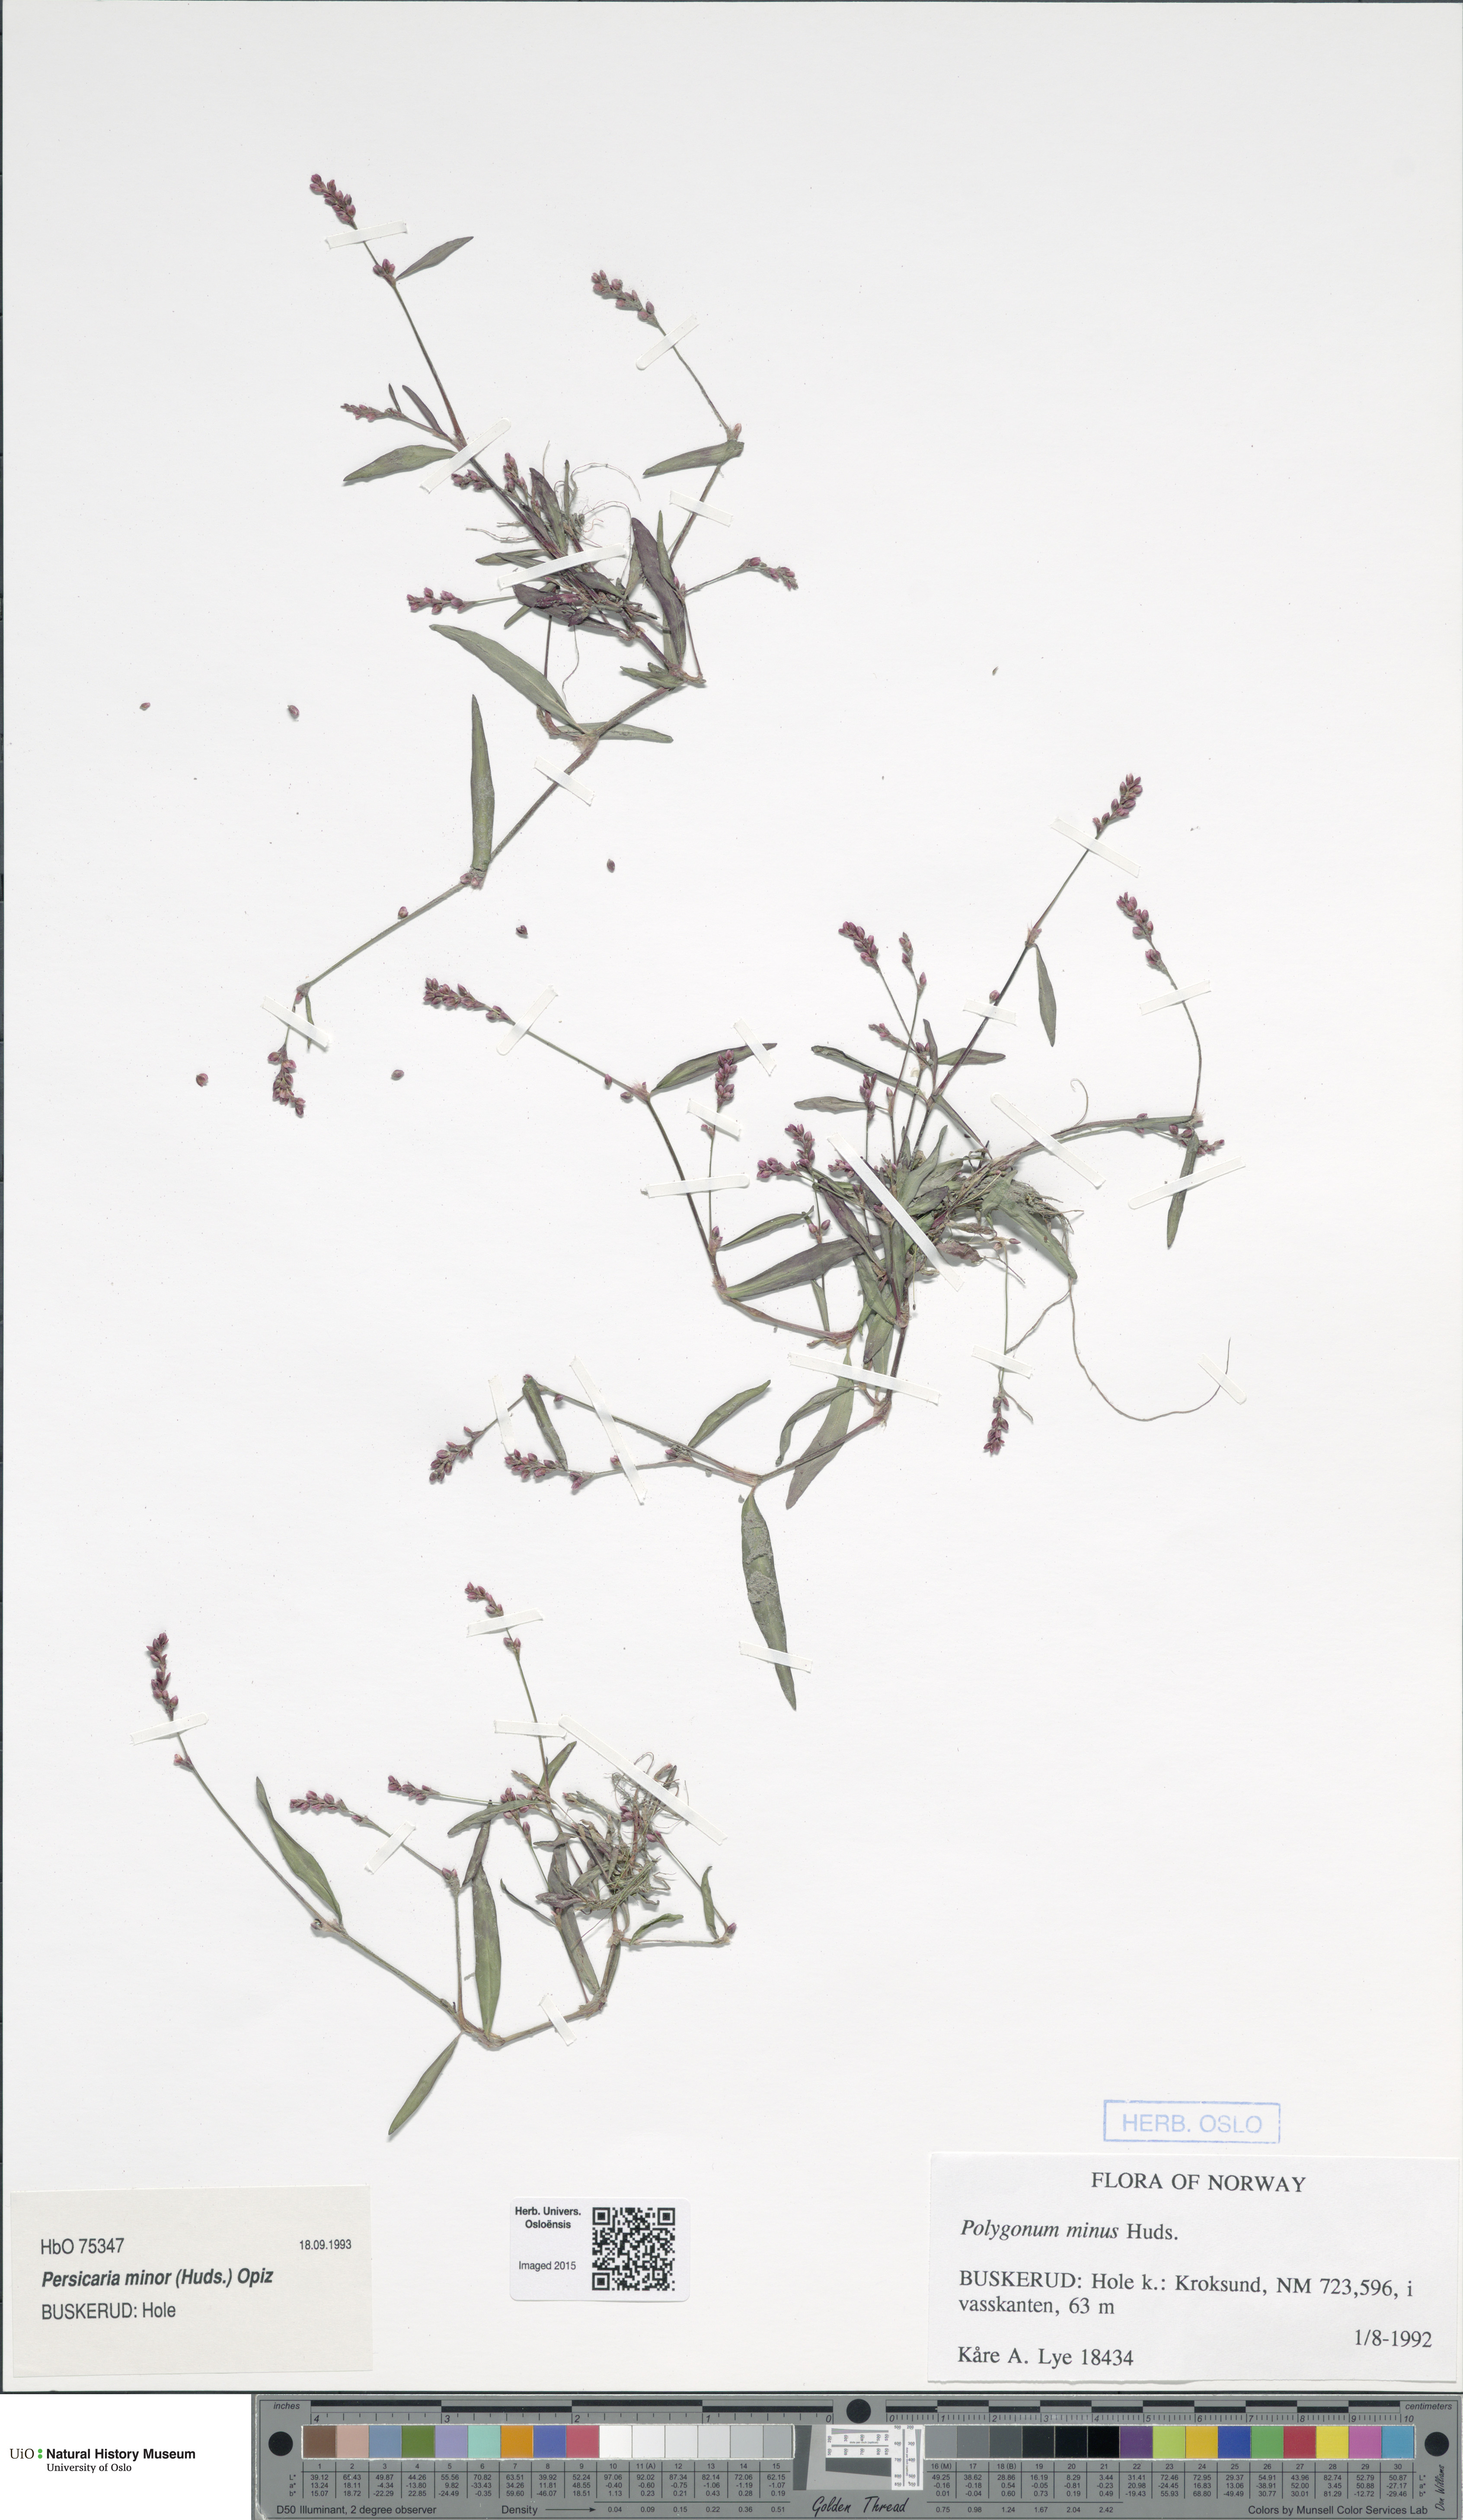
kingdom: Plantae
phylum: Tracheophyta
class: Magnoliopsida
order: Caryophyllales
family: Polygonaceae
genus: Persicaria
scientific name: Persicaria minor
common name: Small water-pepper
